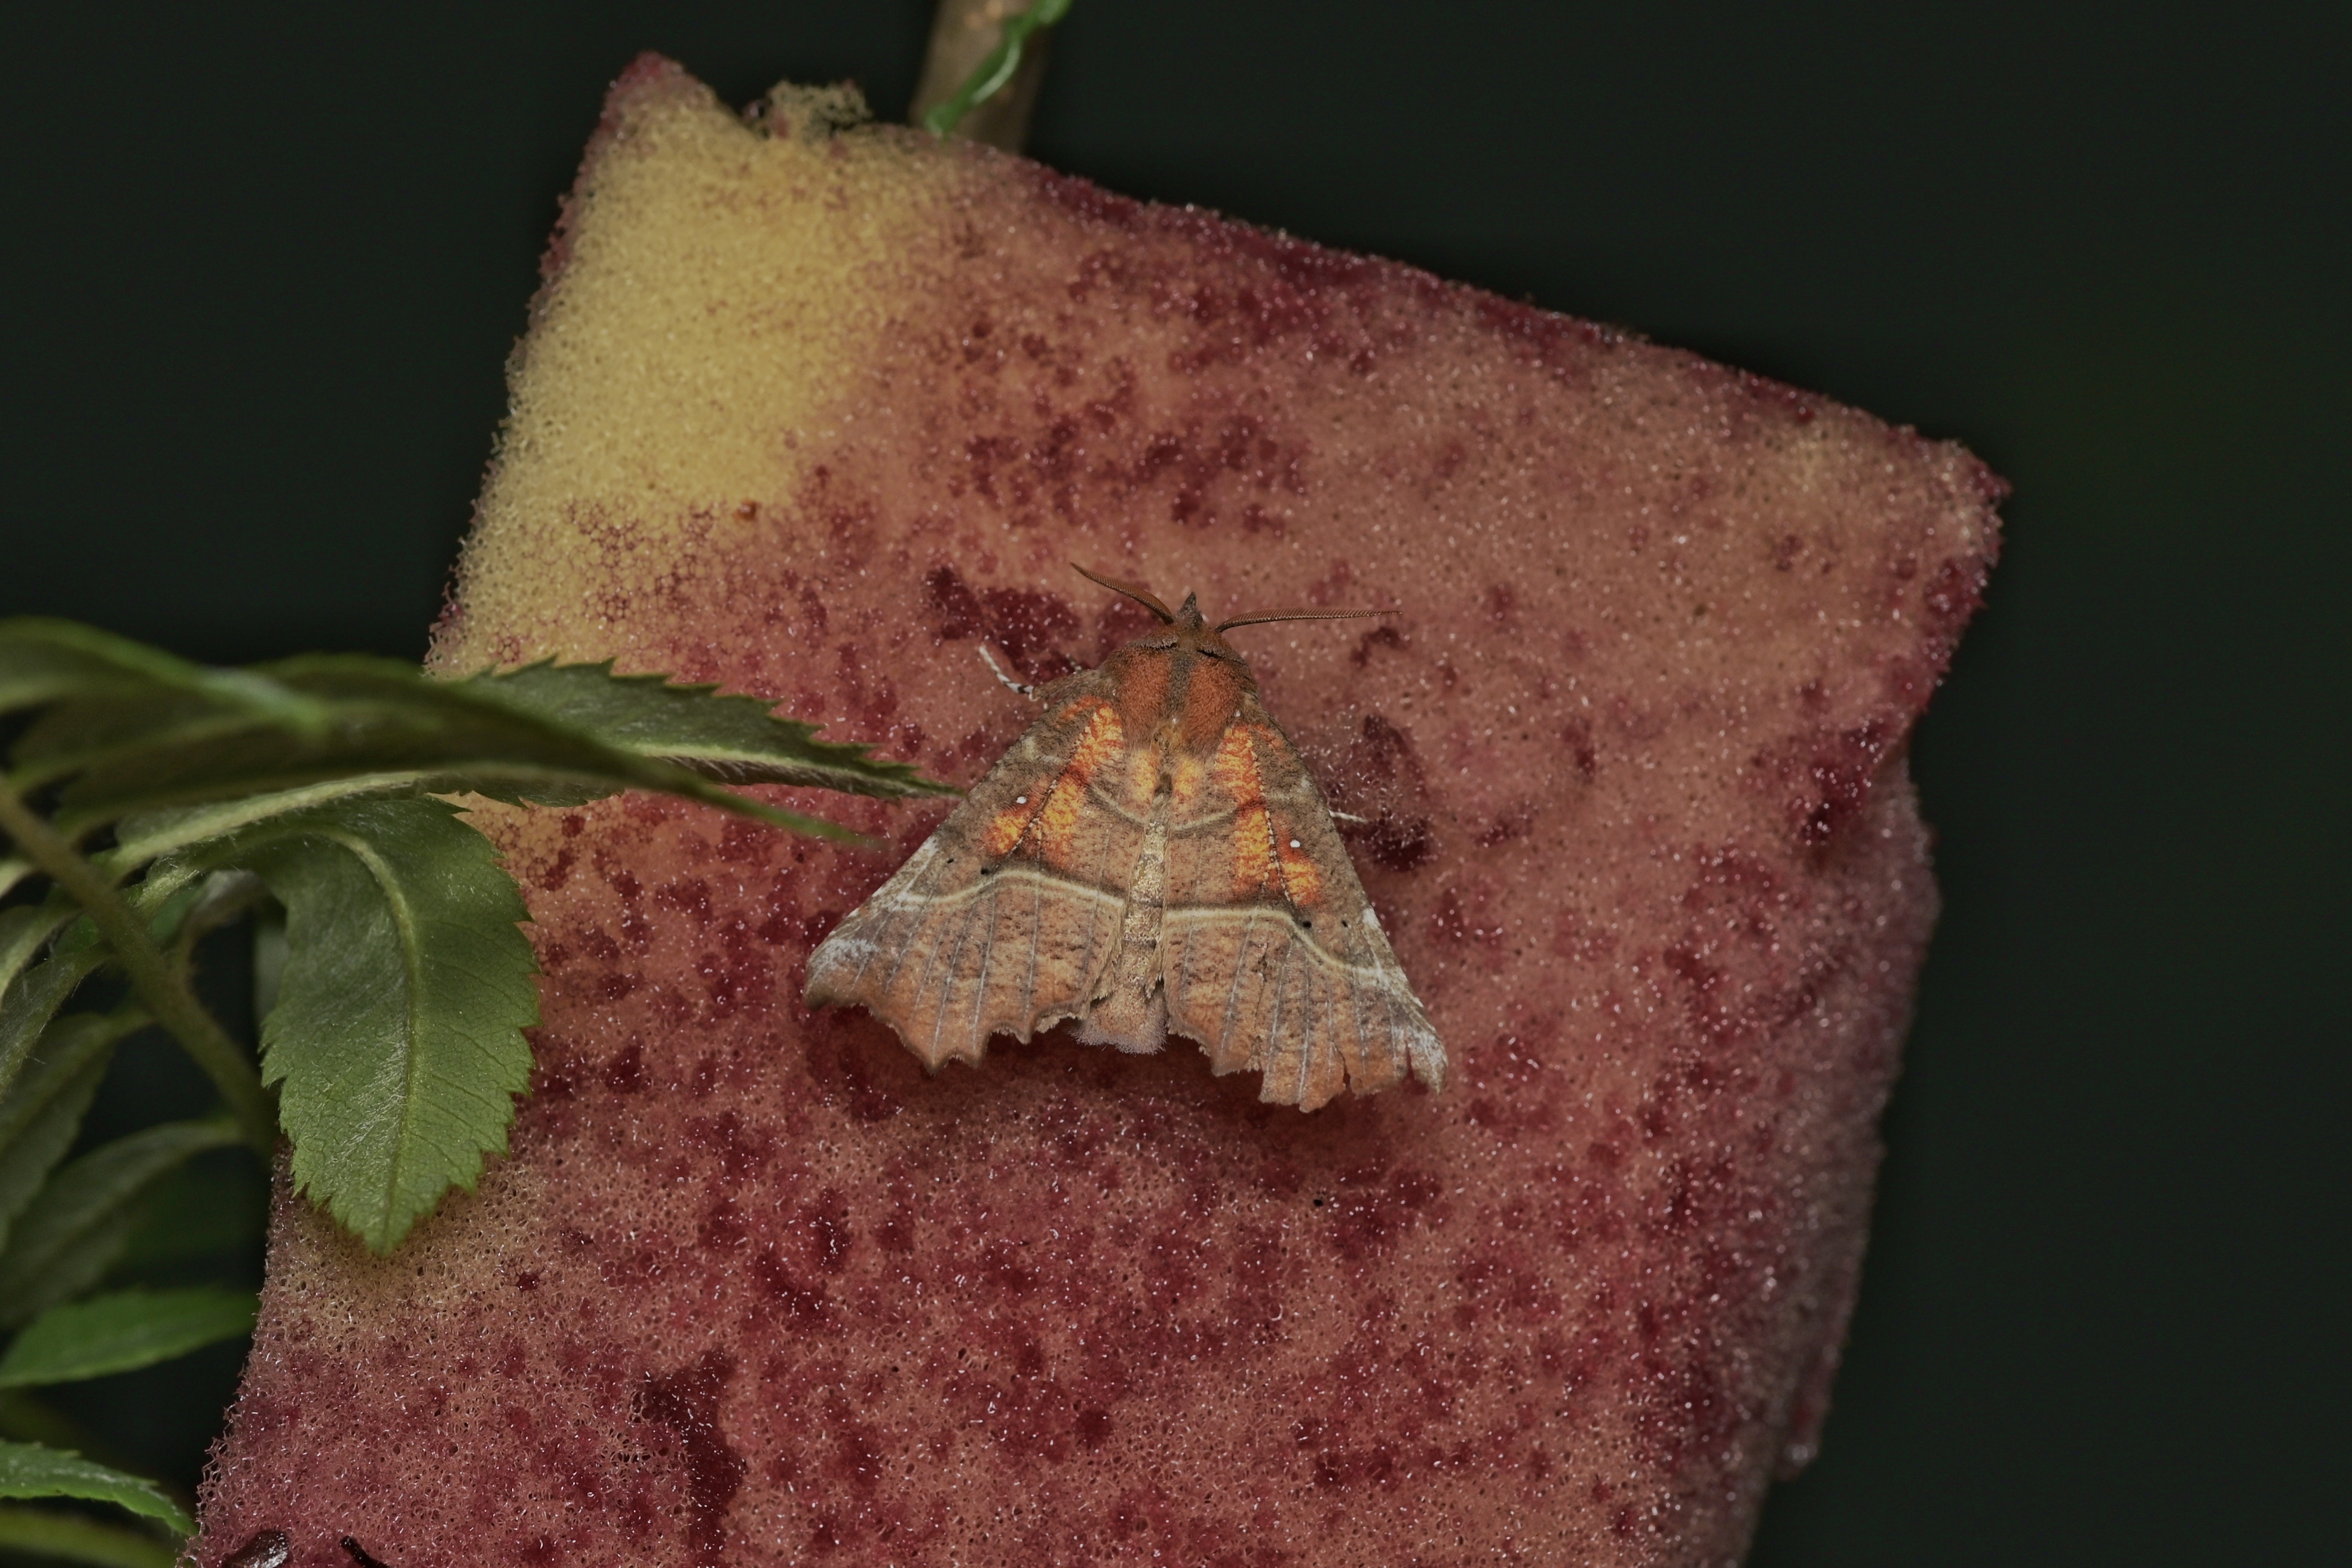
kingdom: Animalia
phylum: Arthropoda
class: Insecta
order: Lepidoptera
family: Erebidae
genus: Scoliopteryx
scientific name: Scoliopteryx libatrix
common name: Herald
